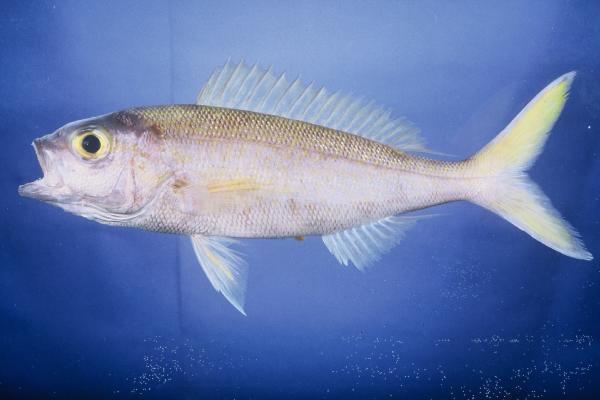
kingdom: Animalia
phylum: Chordata
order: Perciformes
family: Lutjanidae
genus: Pristipomoides
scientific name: Pristipomoides auricilla
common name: Goldflag jobfish
